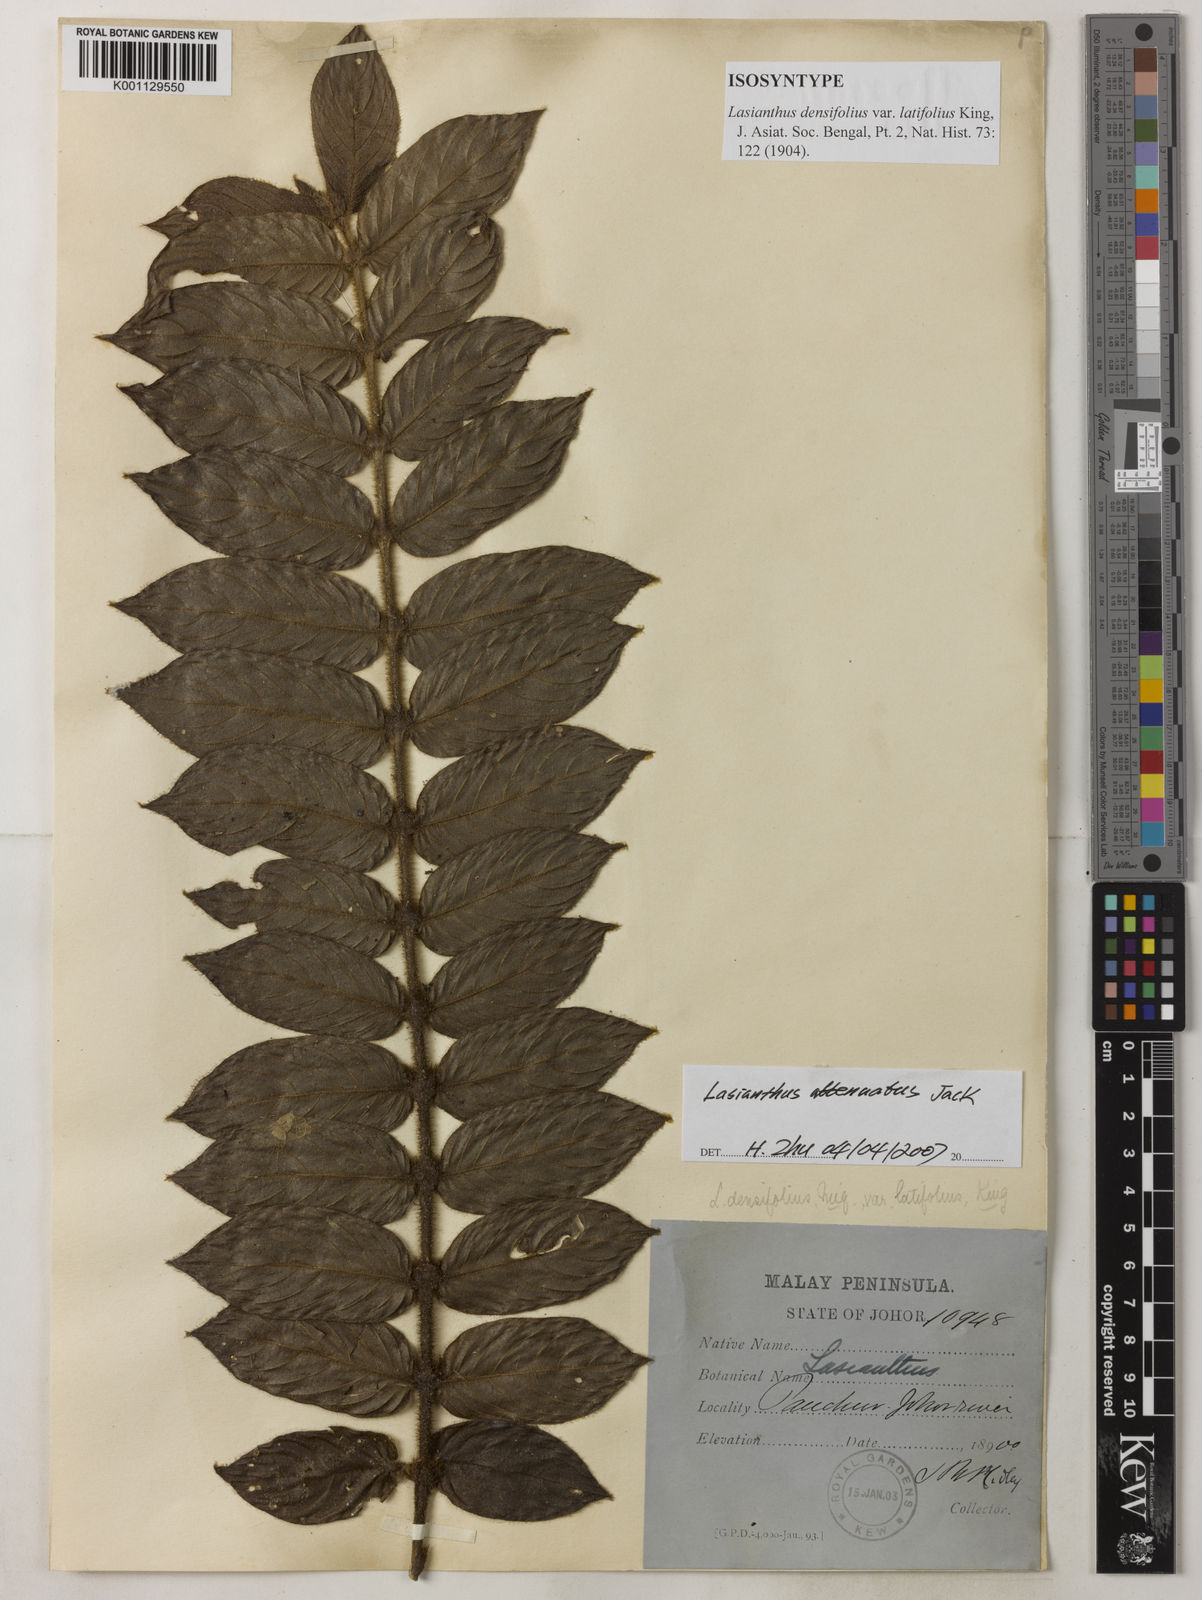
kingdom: Plantae
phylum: Tracheophyta
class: Magnoliopsida
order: Gentianales
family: Rubiaceae
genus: Lasianthus
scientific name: Lasianthus attenuatus
